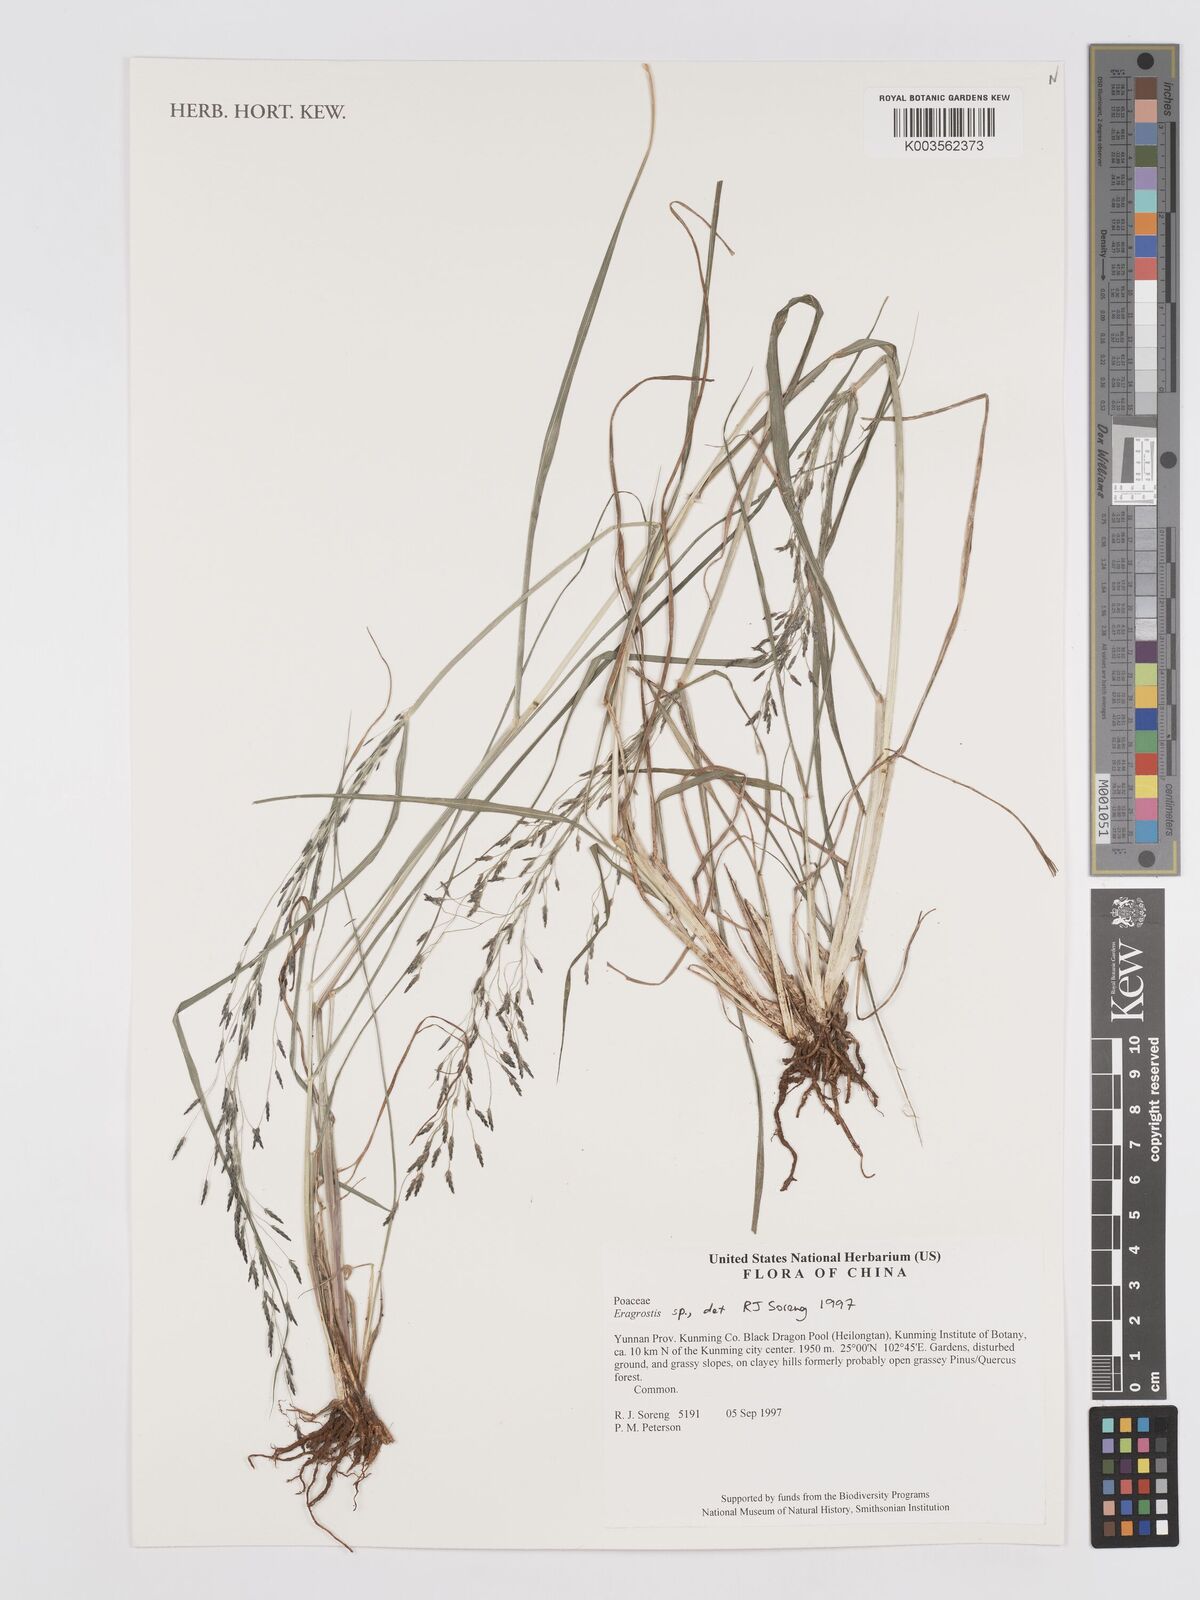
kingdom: Plantae
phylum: Tracheophyta
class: Liliopsida
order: Poales
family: Poaceae
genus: Eragrostis
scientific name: Eragrostis
